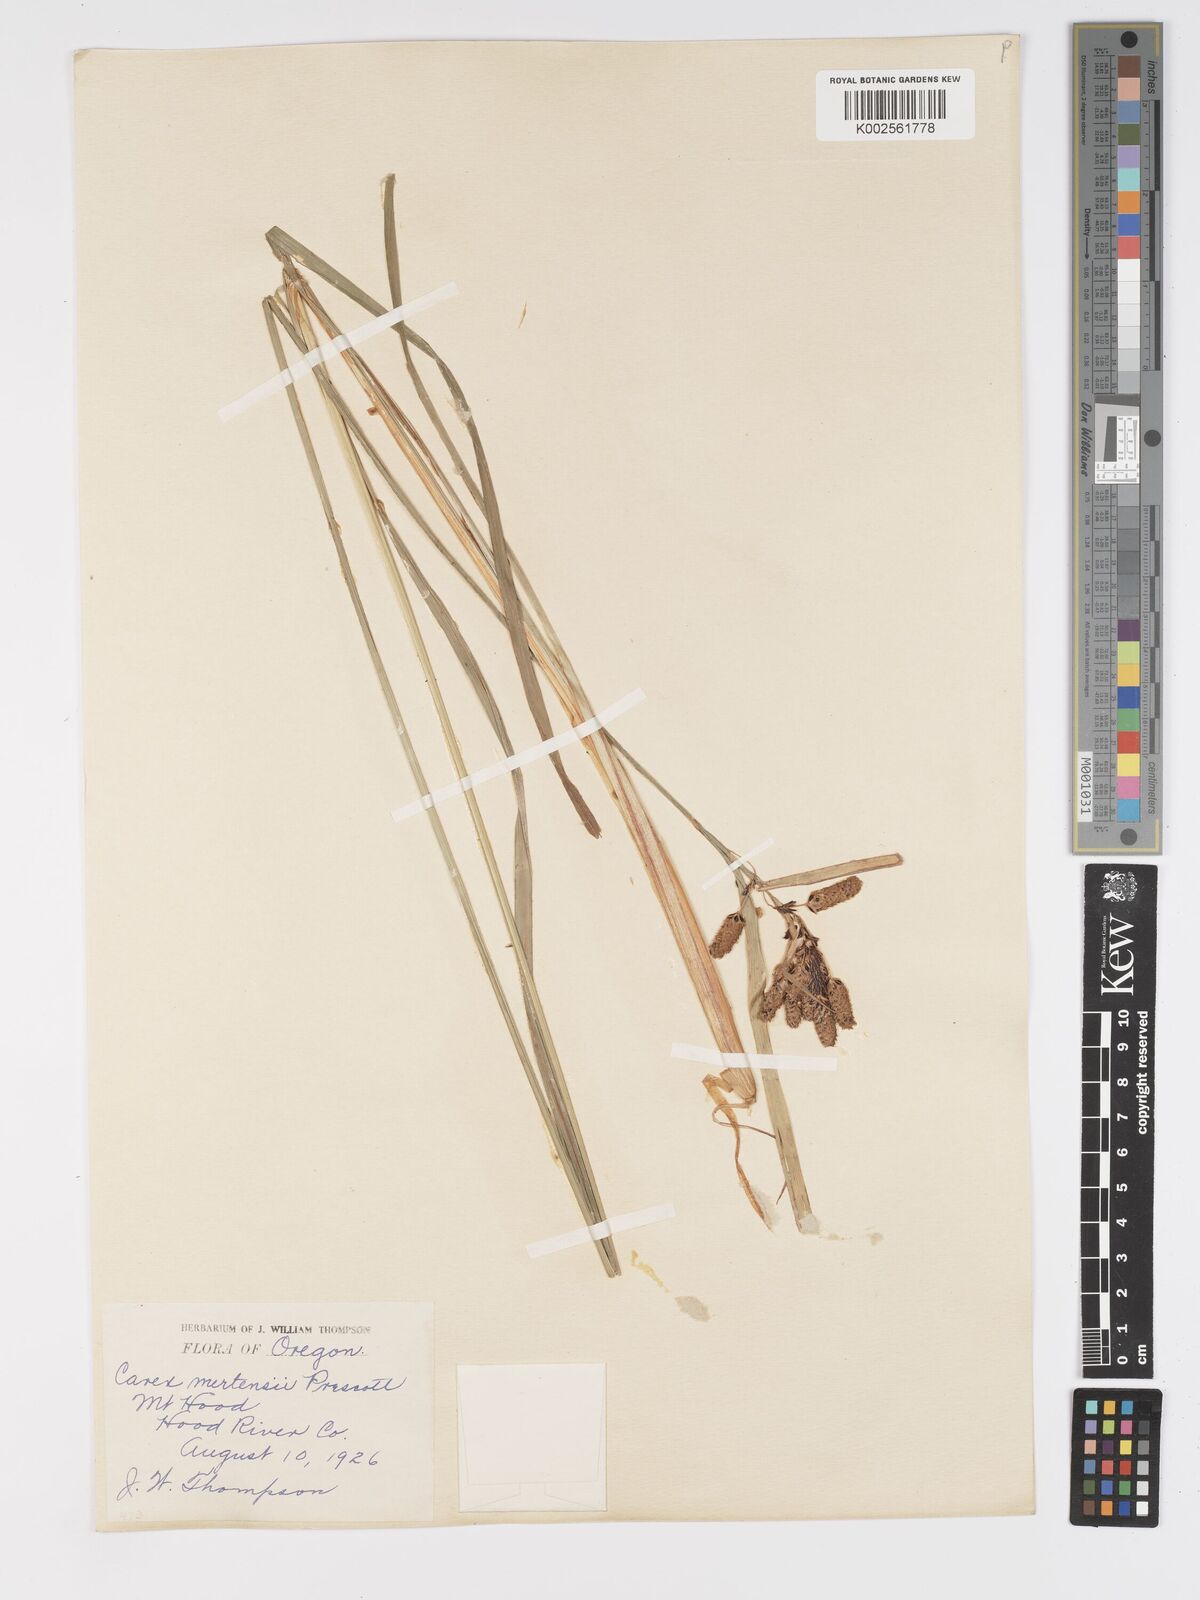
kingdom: Plantae
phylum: Tracheophyta
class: Liliopsida
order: Poales
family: Cyperaceae
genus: Carex
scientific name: Carex mertensii
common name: Mertens' sedge
